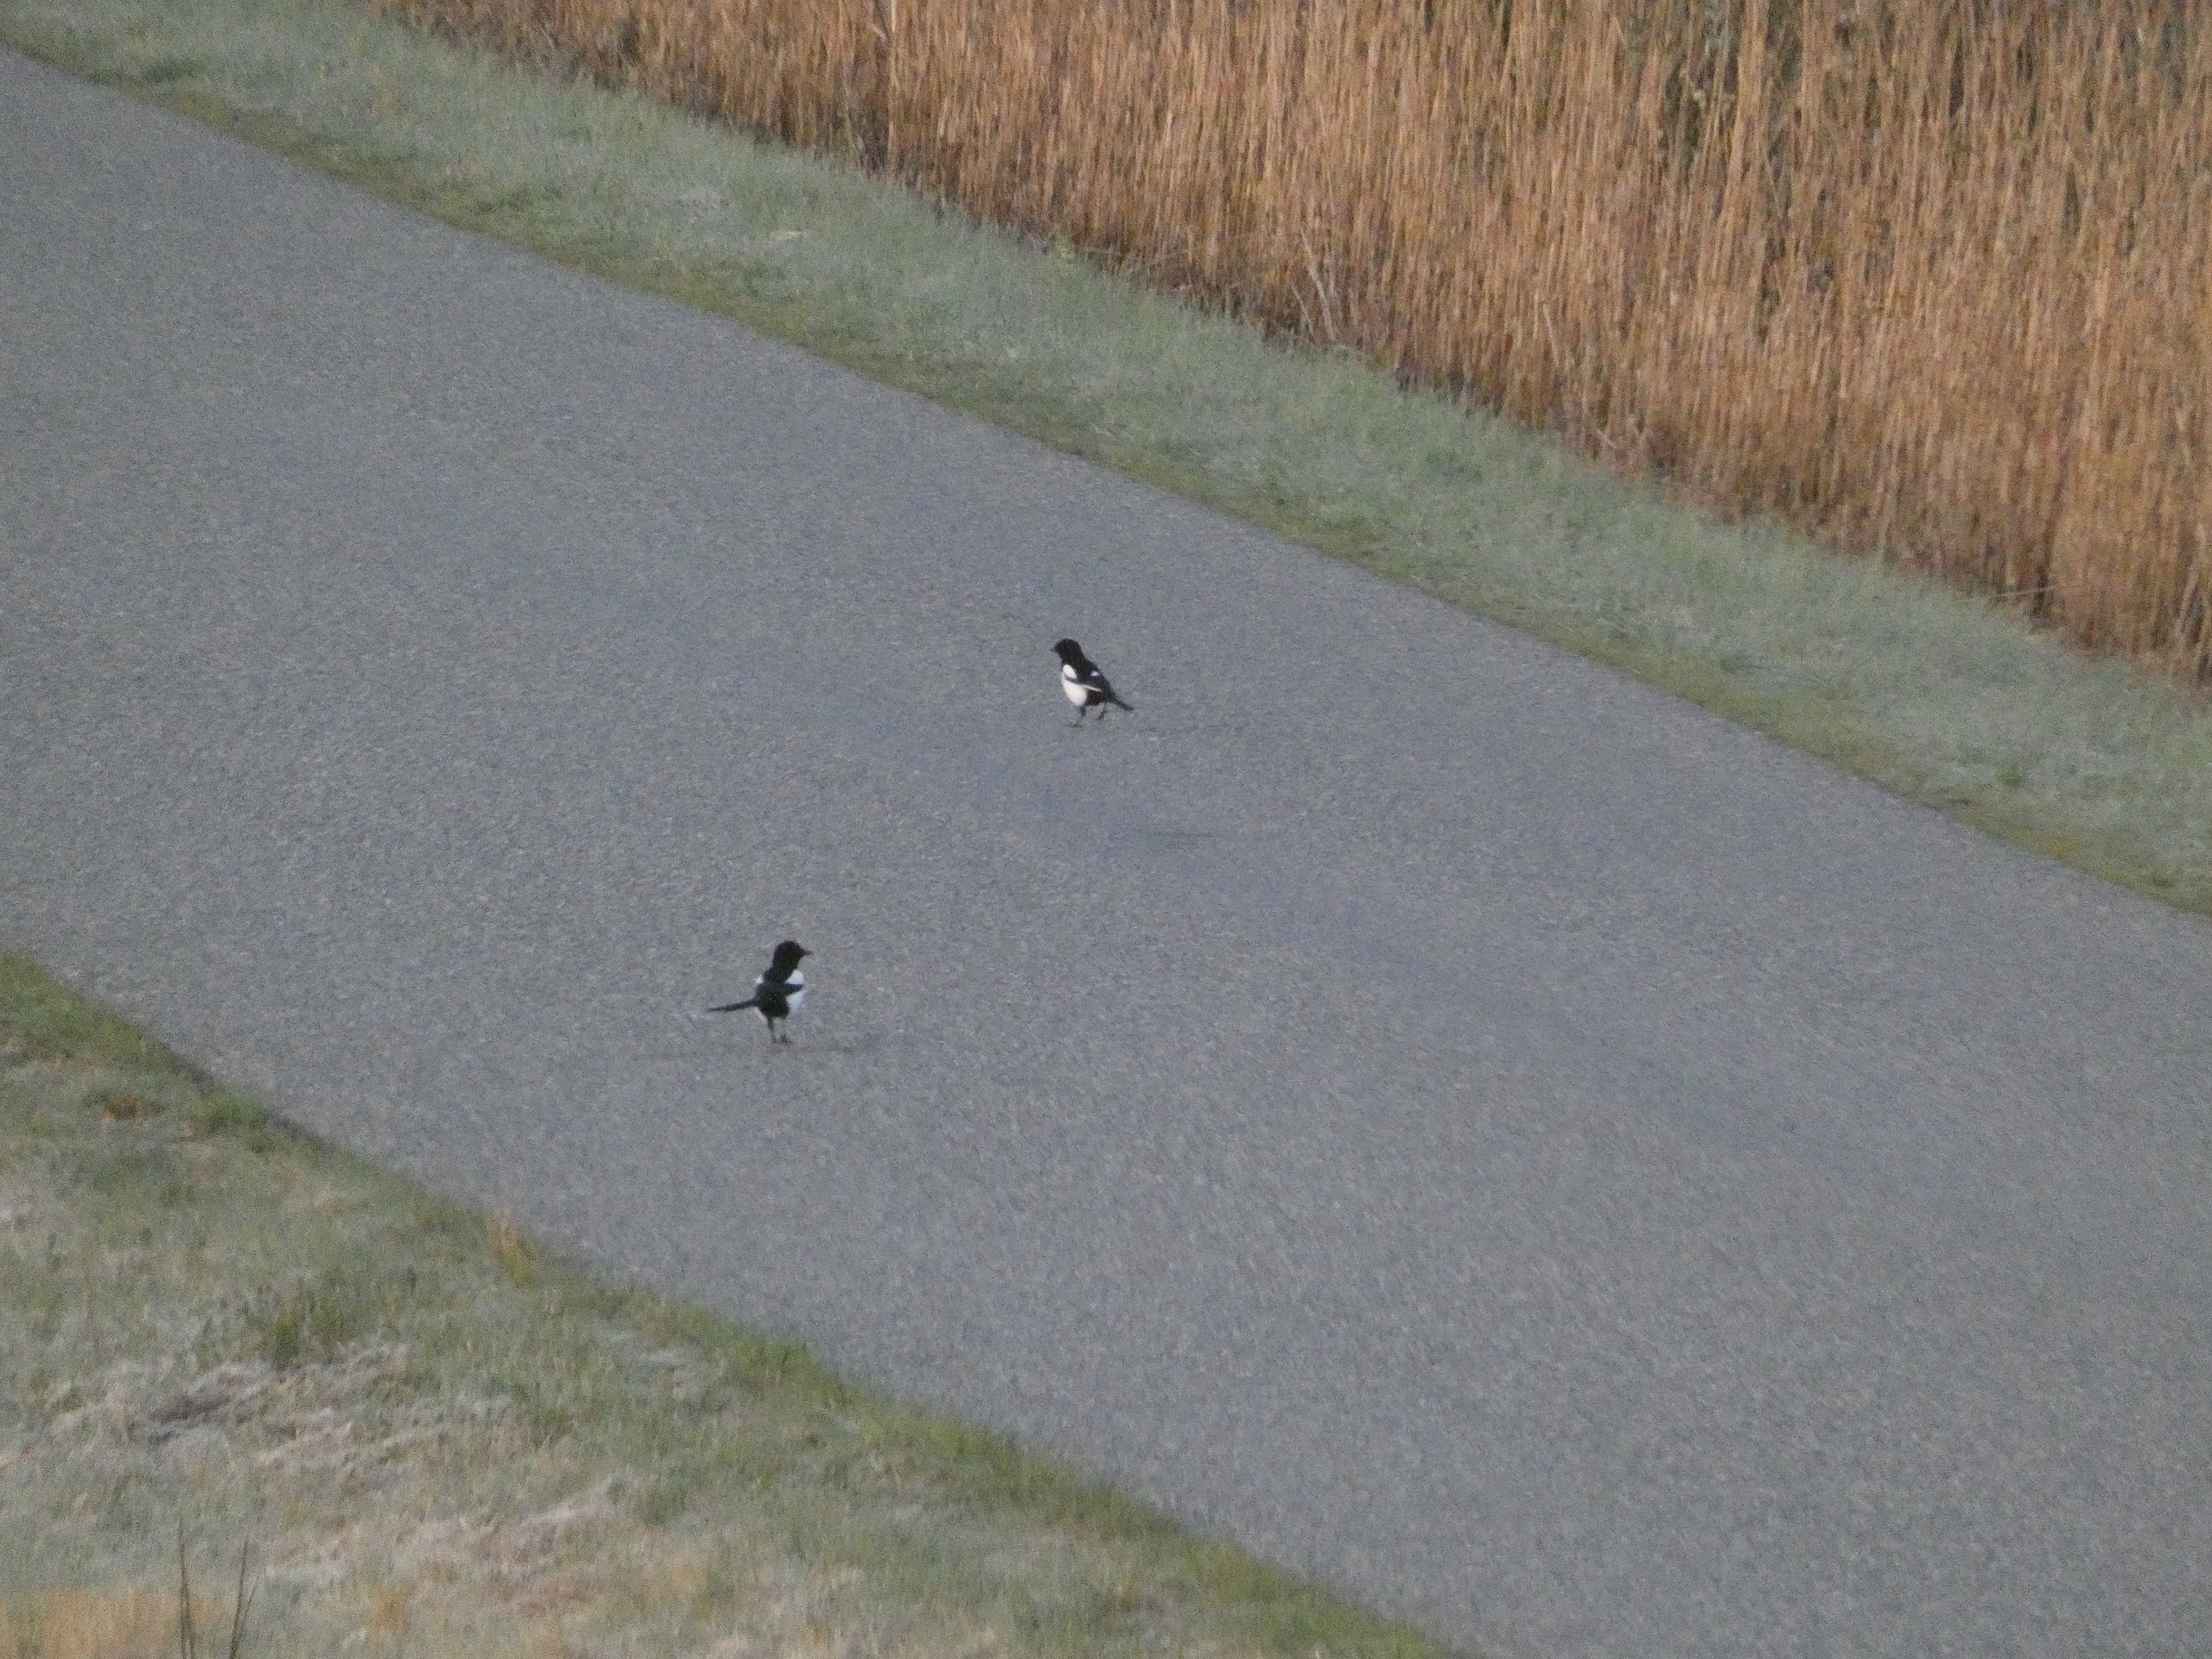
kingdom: Animalia
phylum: Chordata
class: Aves
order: Passeriformes
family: Corvidae
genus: Pica
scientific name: Pica pica
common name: Husskade
